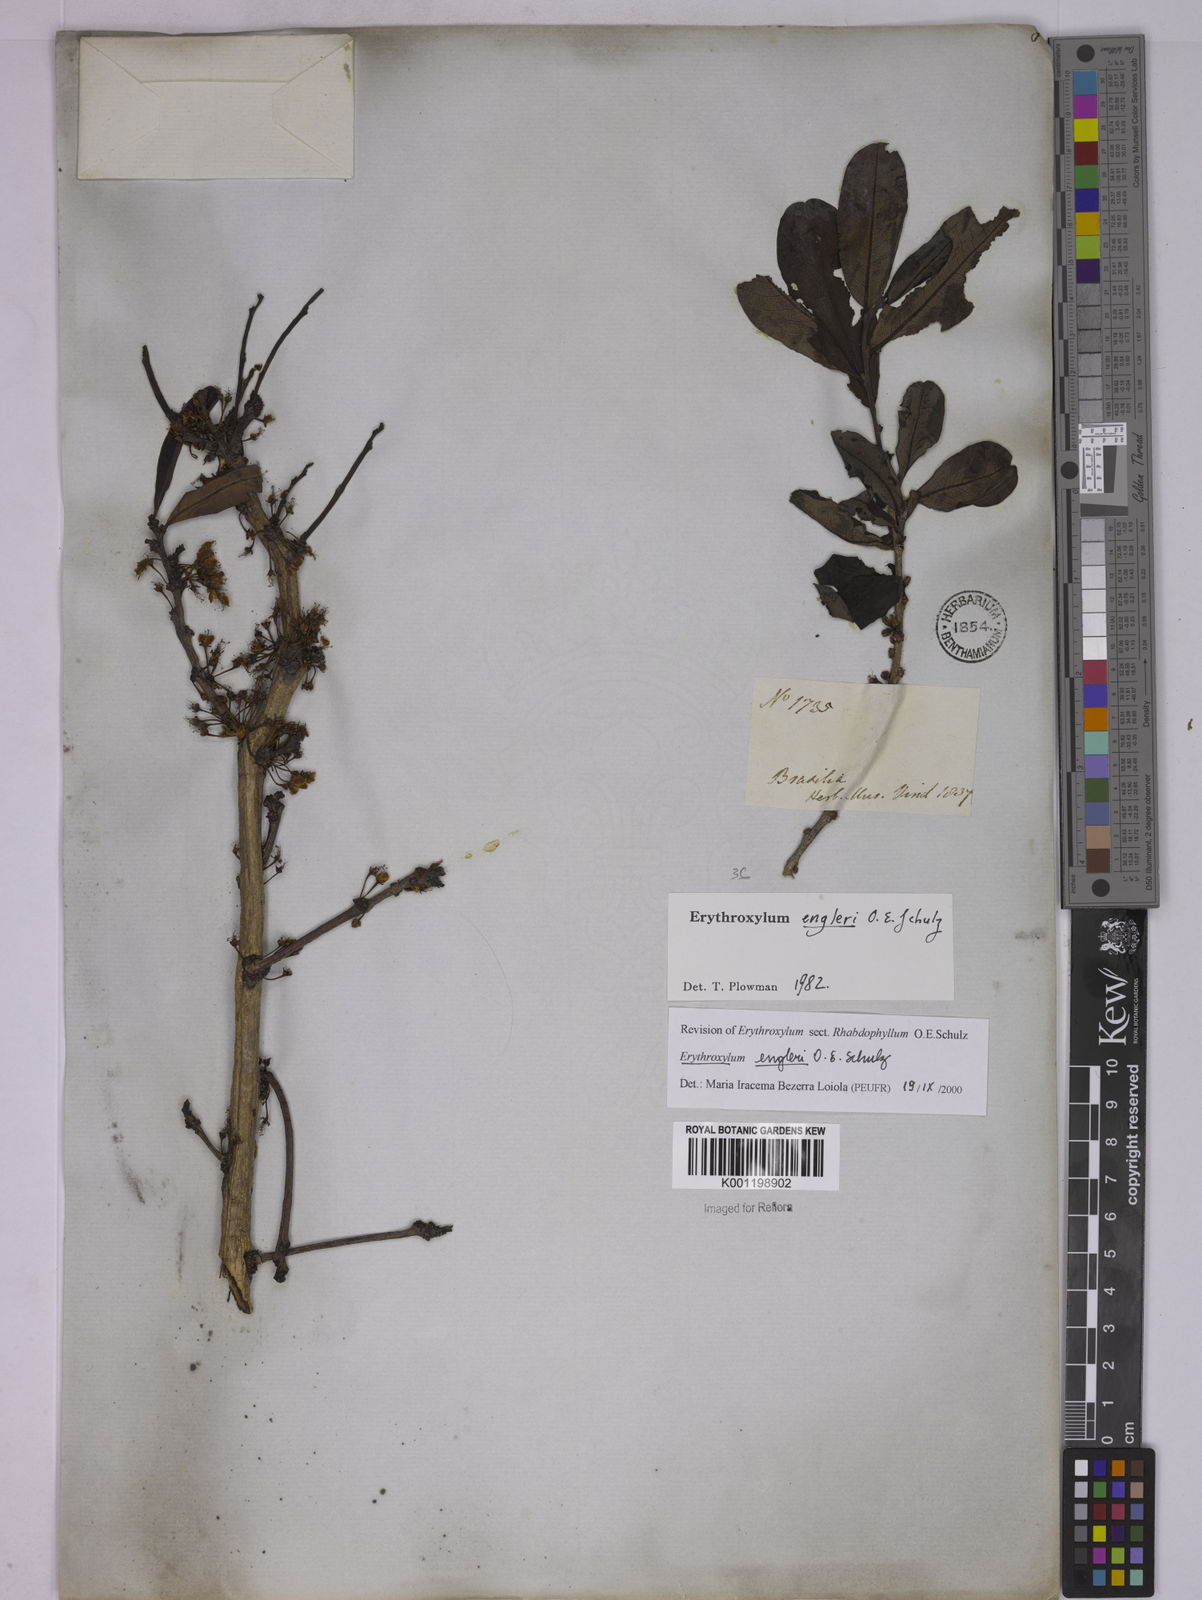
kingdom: Plantae
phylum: Tracheophyta
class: Magnoliopsida
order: Malpighiales
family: Erythroxylaceae
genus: Erythroxylum
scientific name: Erythroxylum engleri
